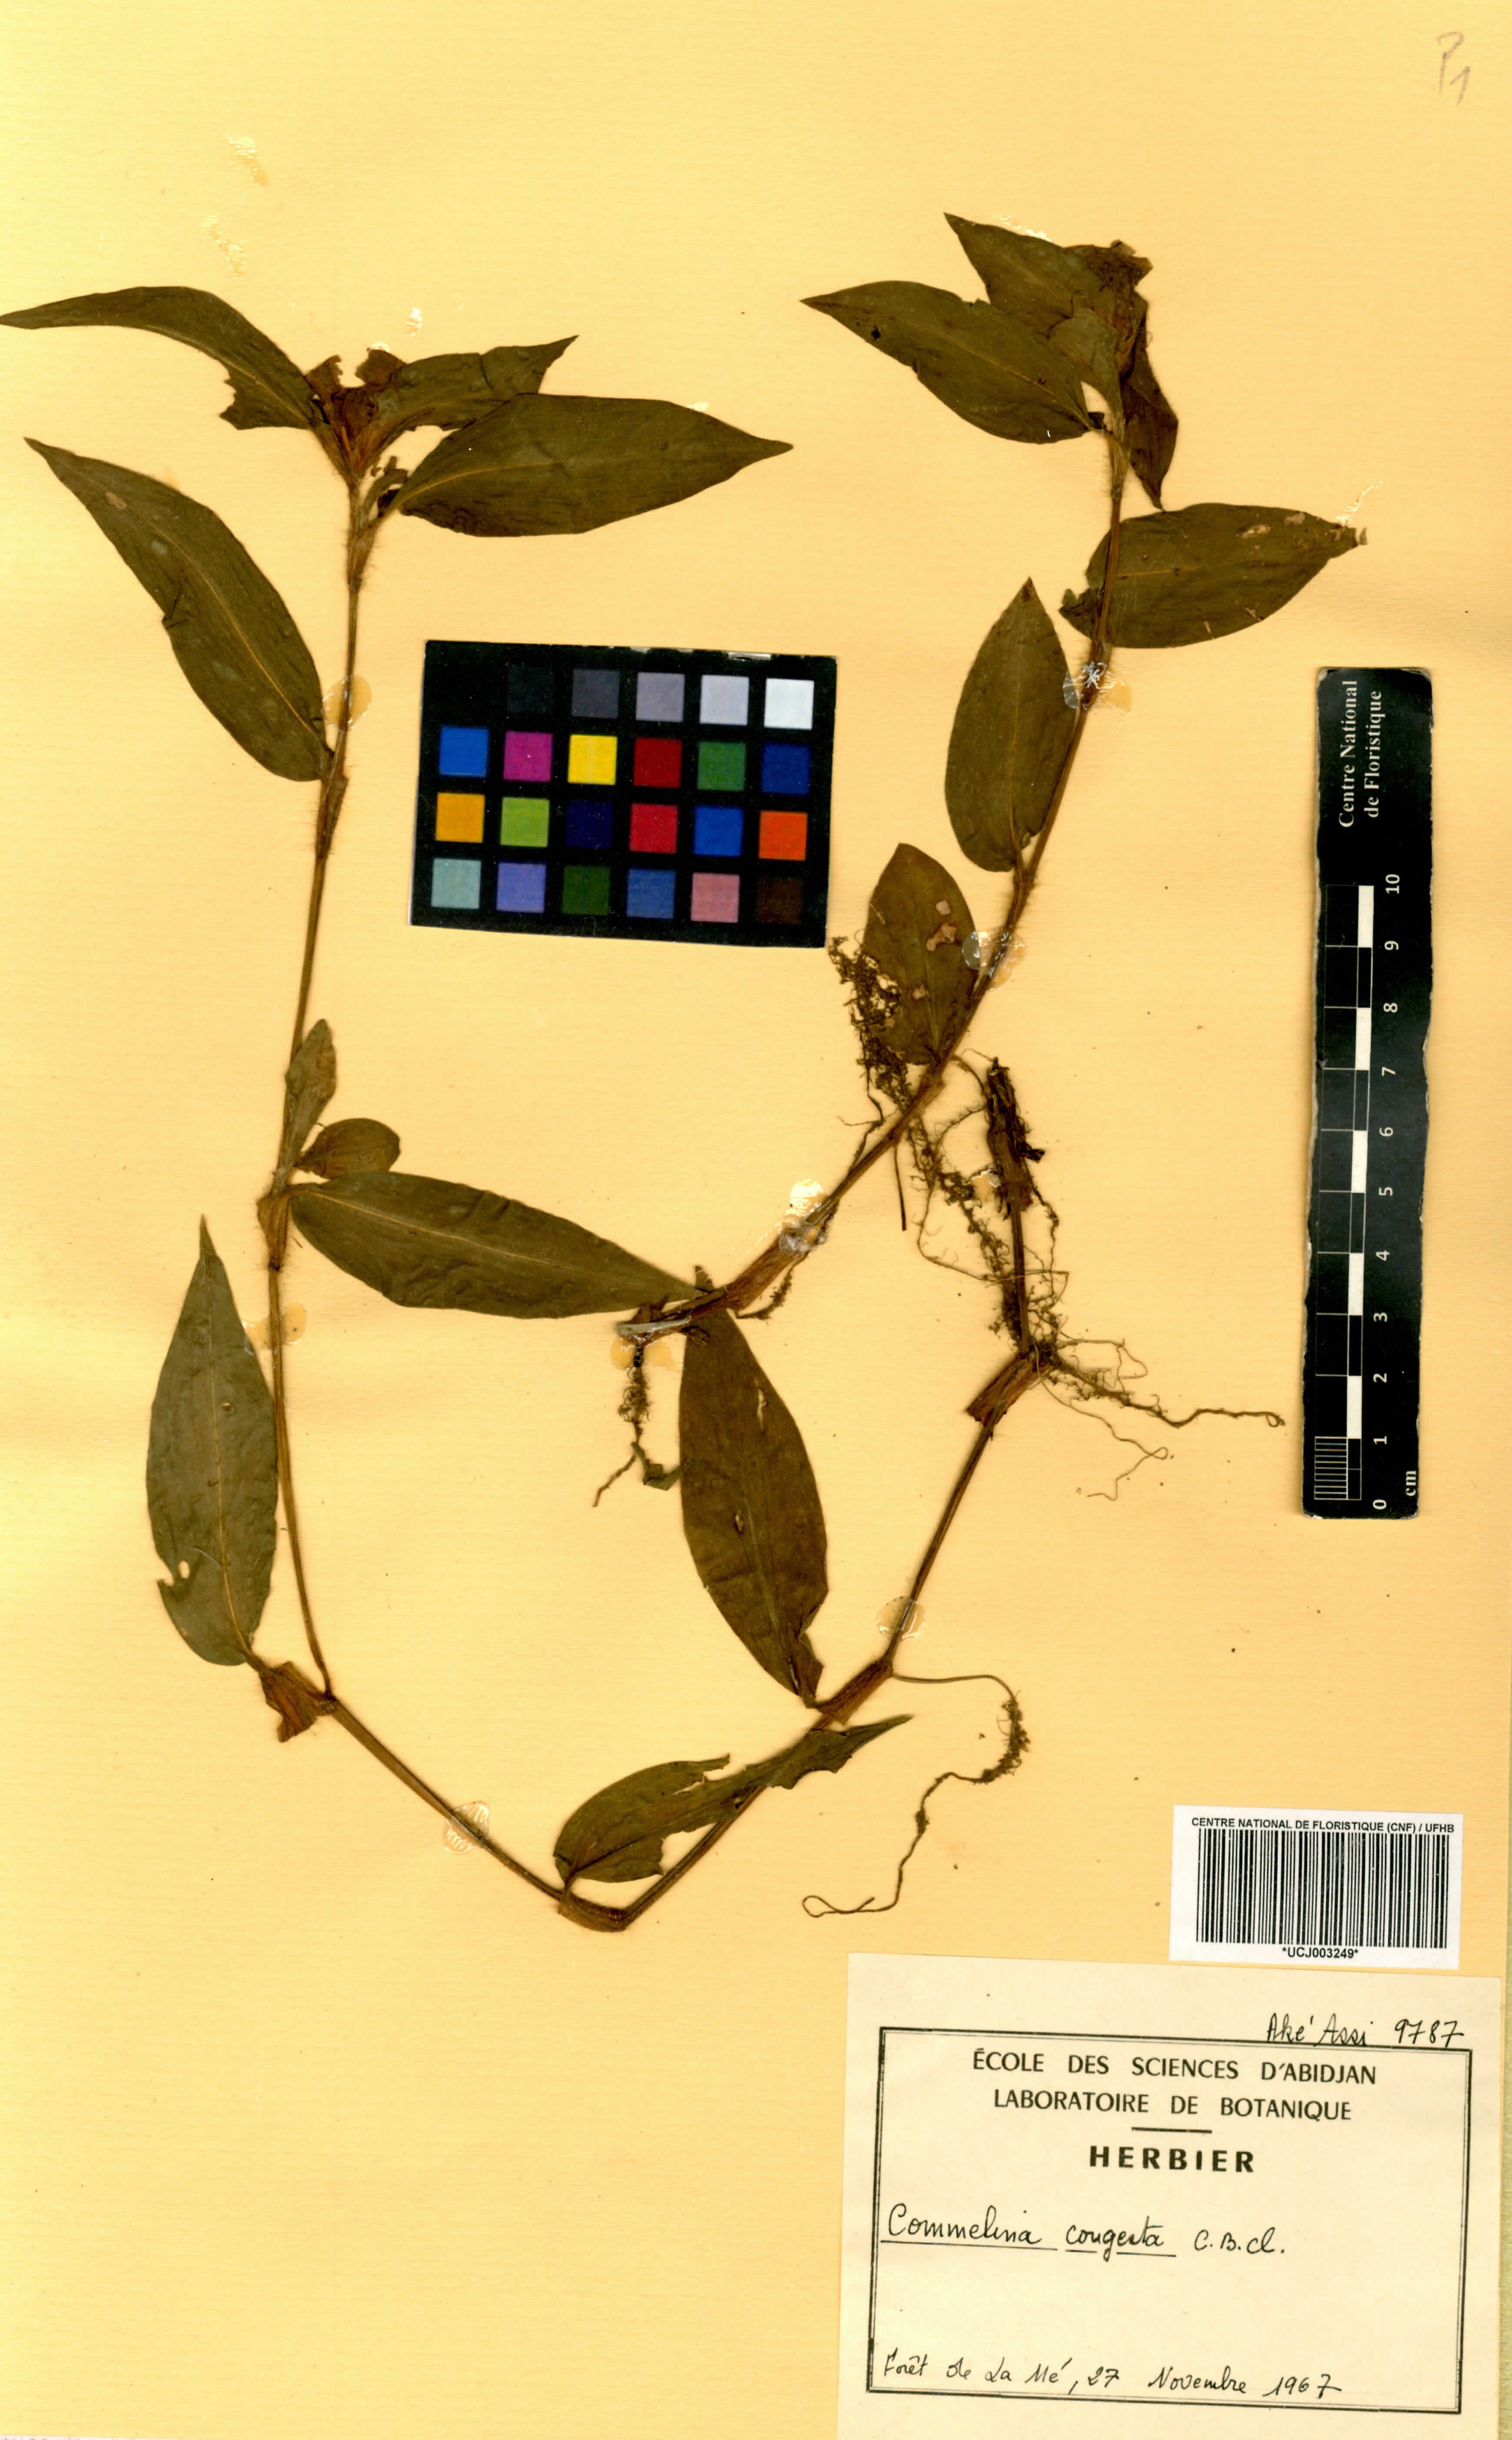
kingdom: Plantae
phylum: Tracheophyta
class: Liliopsida
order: Commelinales
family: Commelinaceae
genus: Commelina
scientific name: Commelina congesta
